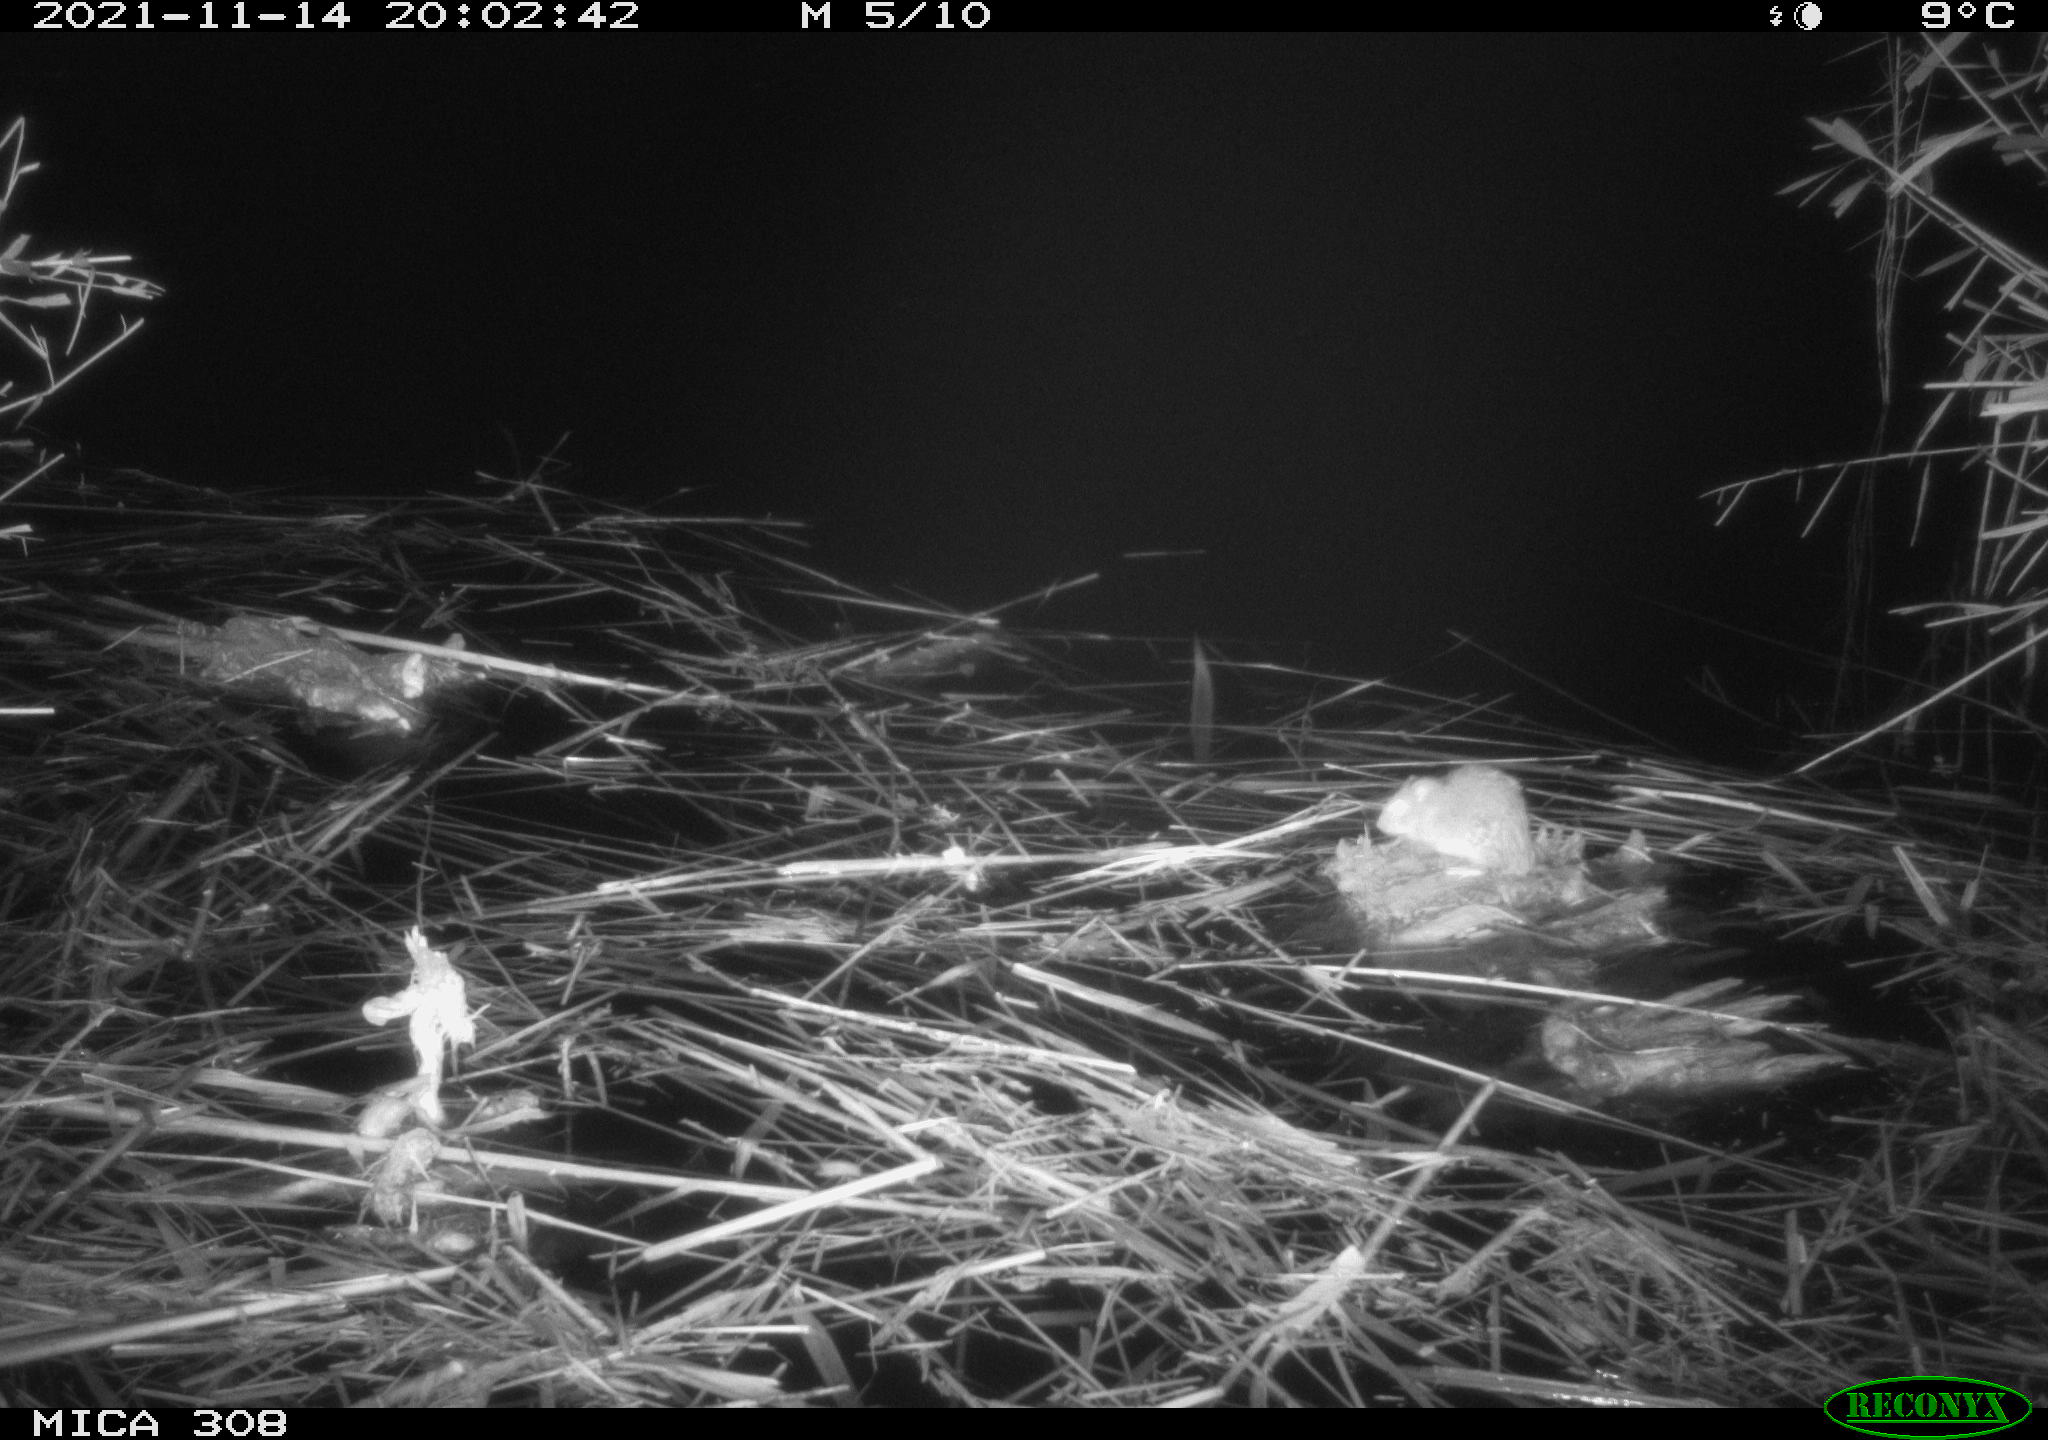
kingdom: Animalia
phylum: Chordata
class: Mammalia
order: Rodentia
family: Muridae
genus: Rattus
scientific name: Rattus norvegicus
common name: Brown rat
